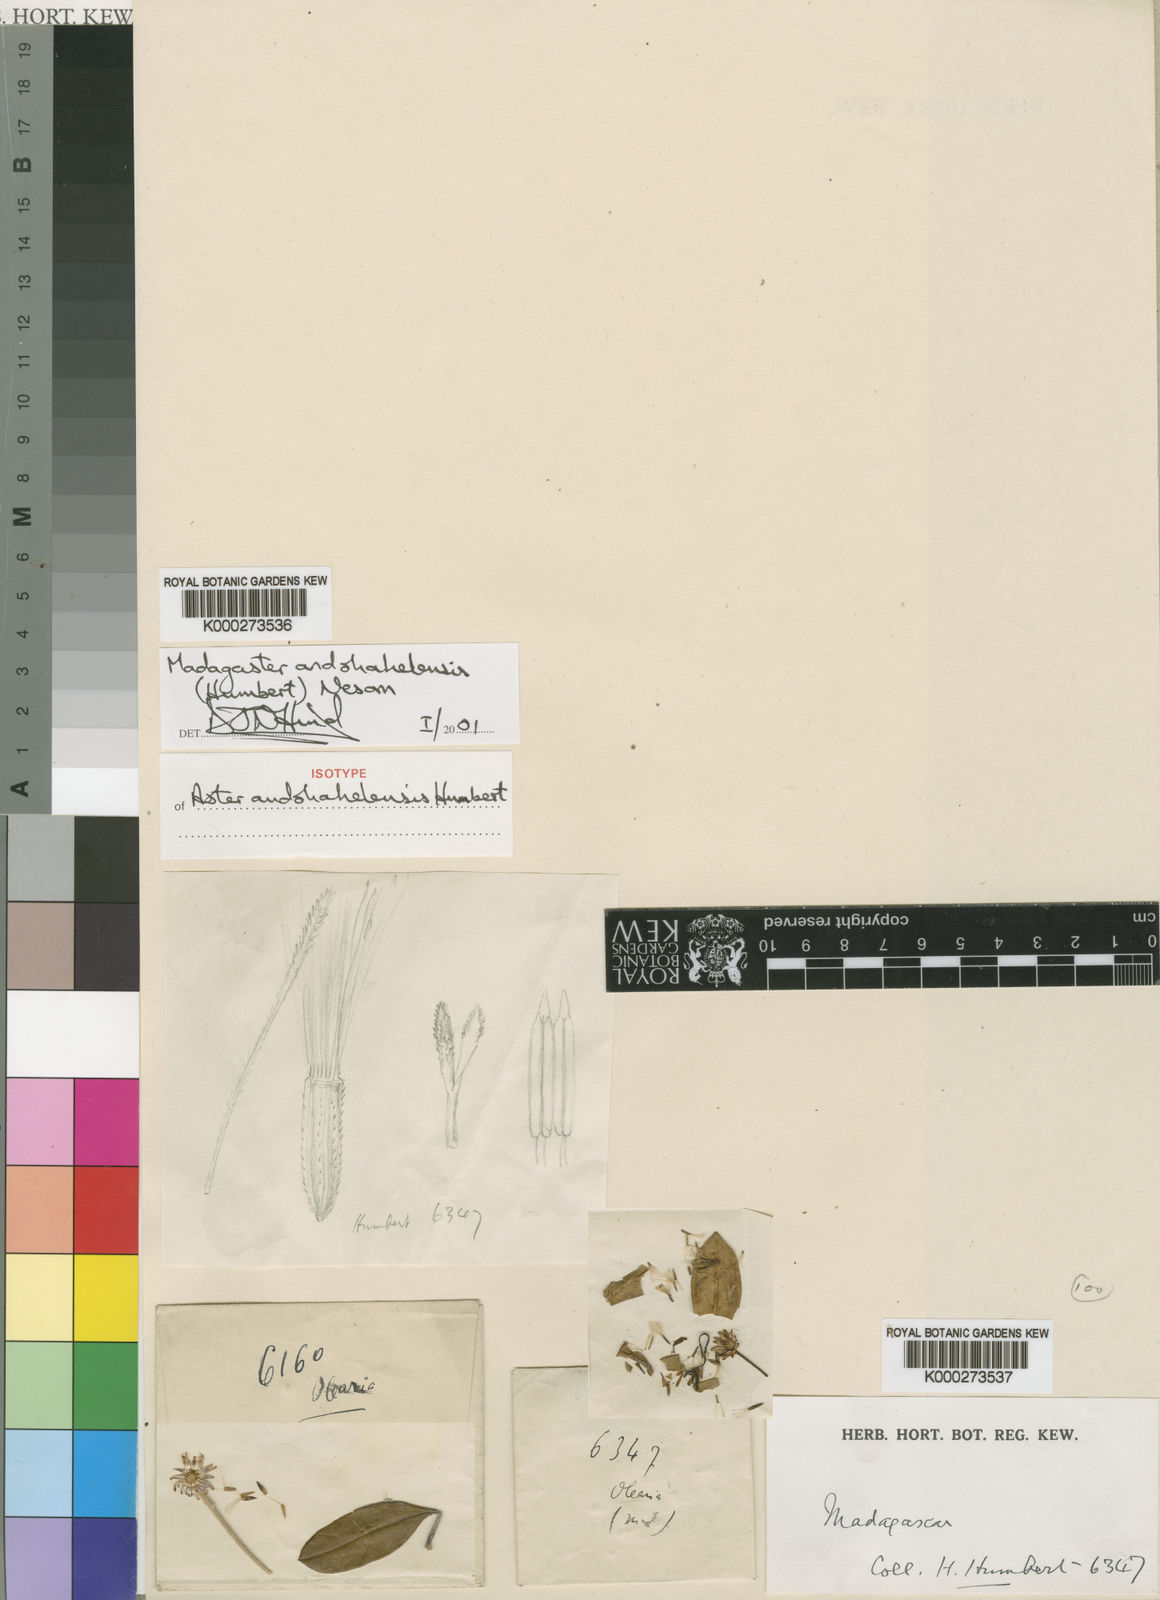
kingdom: Plantae
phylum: Tracheophyta
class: Magnoliopsida
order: Asterales
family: Asteraceae
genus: Madagaster
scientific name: Madagaster andohahelensis
